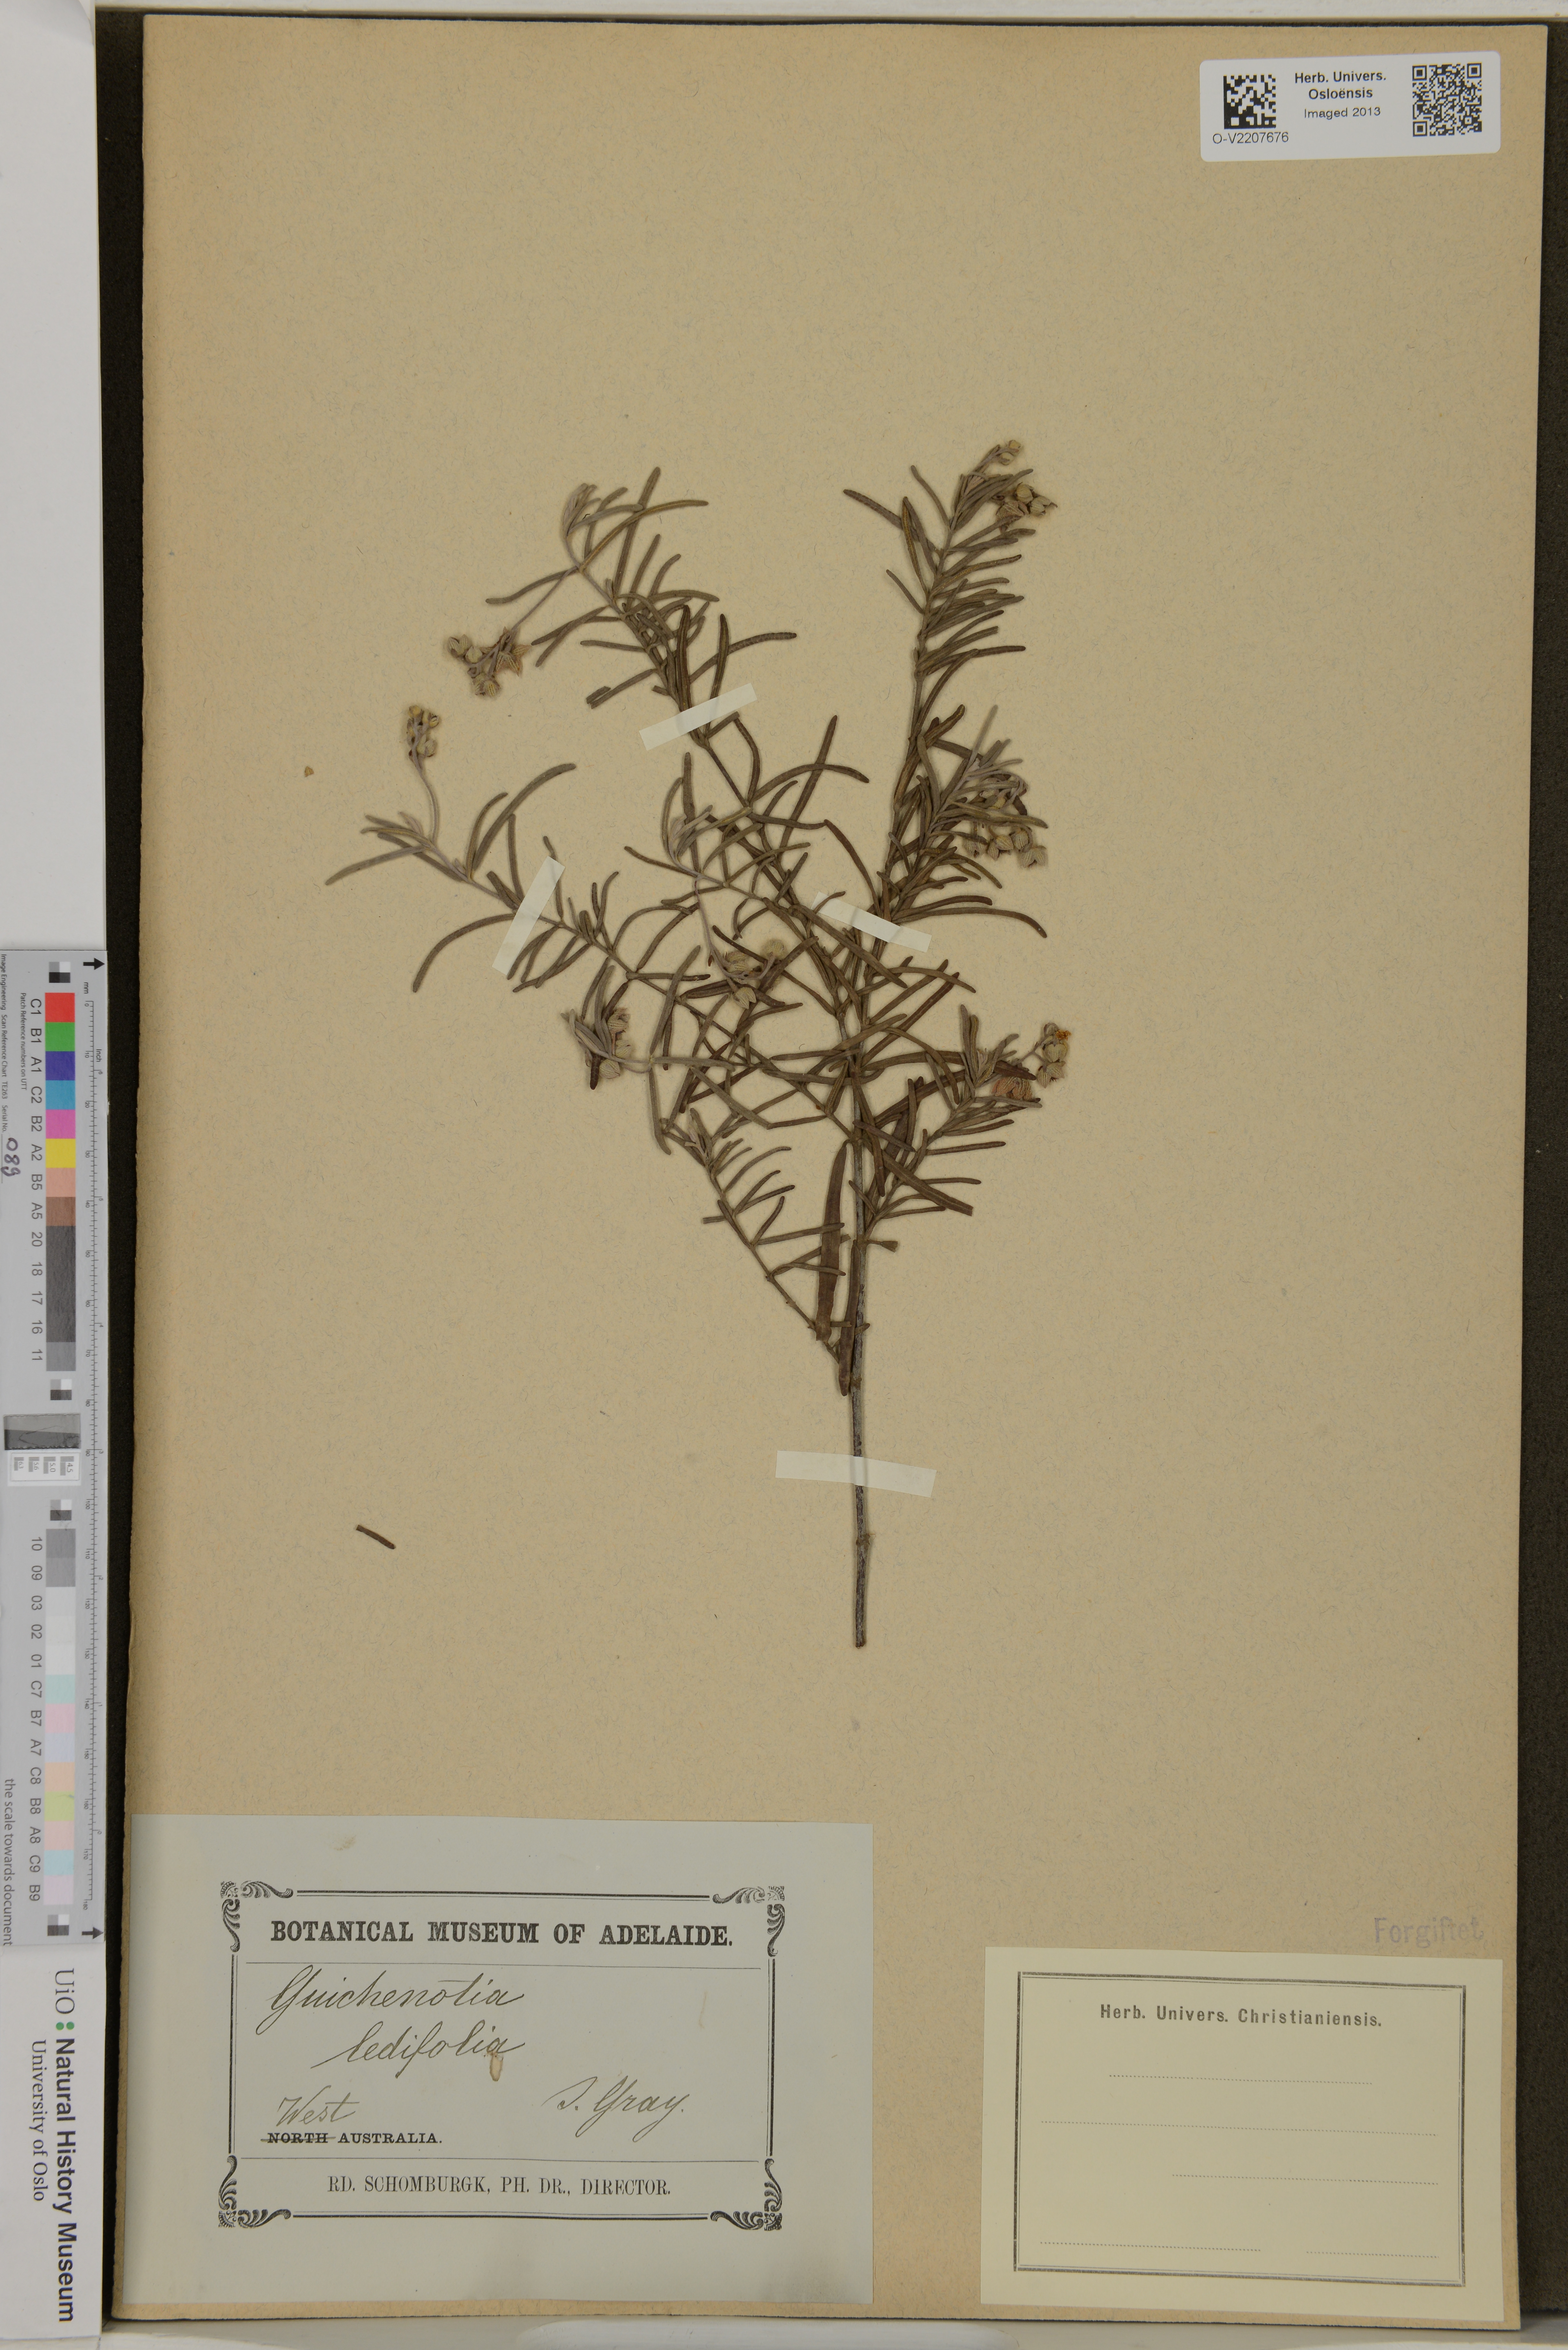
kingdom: Plantae
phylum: Tracheophyta
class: Magnoliopsida
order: Malvales
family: Malvaceae
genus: Guichenotia
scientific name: Guichenotia ledifolia
